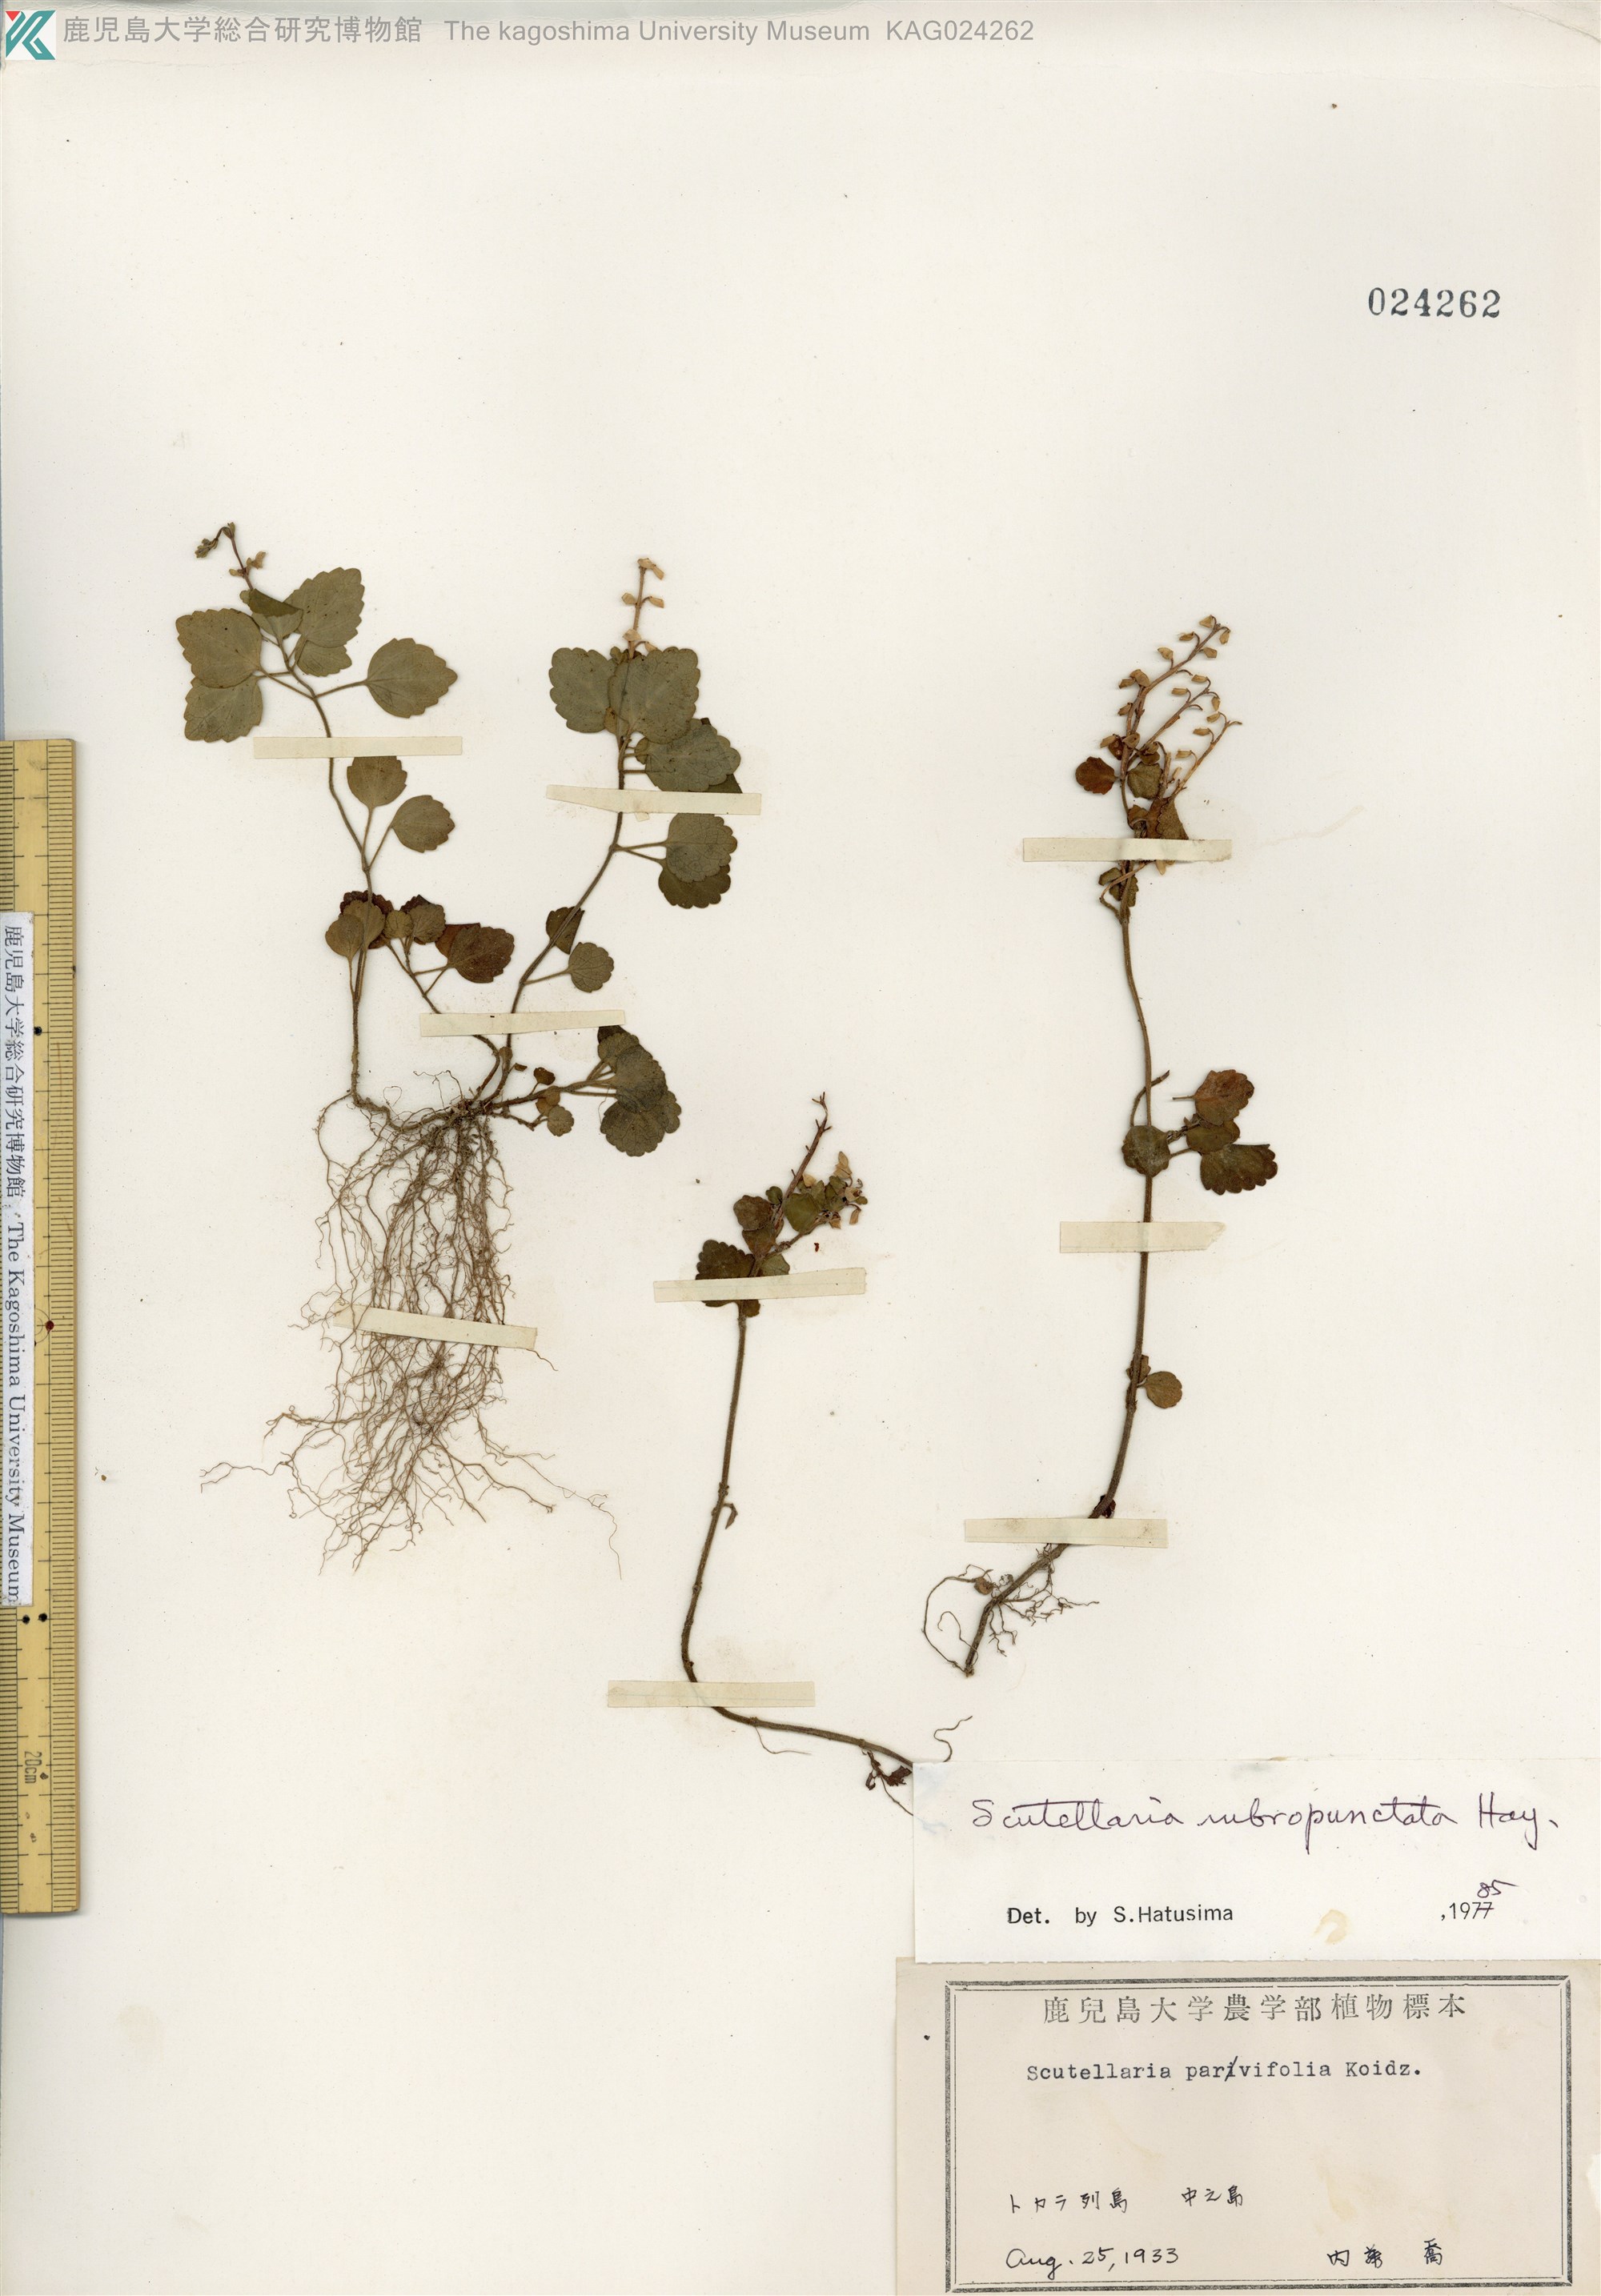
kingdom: Plantae
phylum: Tracheophyta
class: Magnoliopsida
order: Lamiales
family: Lamiaceae
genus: Scutellaria
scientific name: Scutellaria rubropunctata
